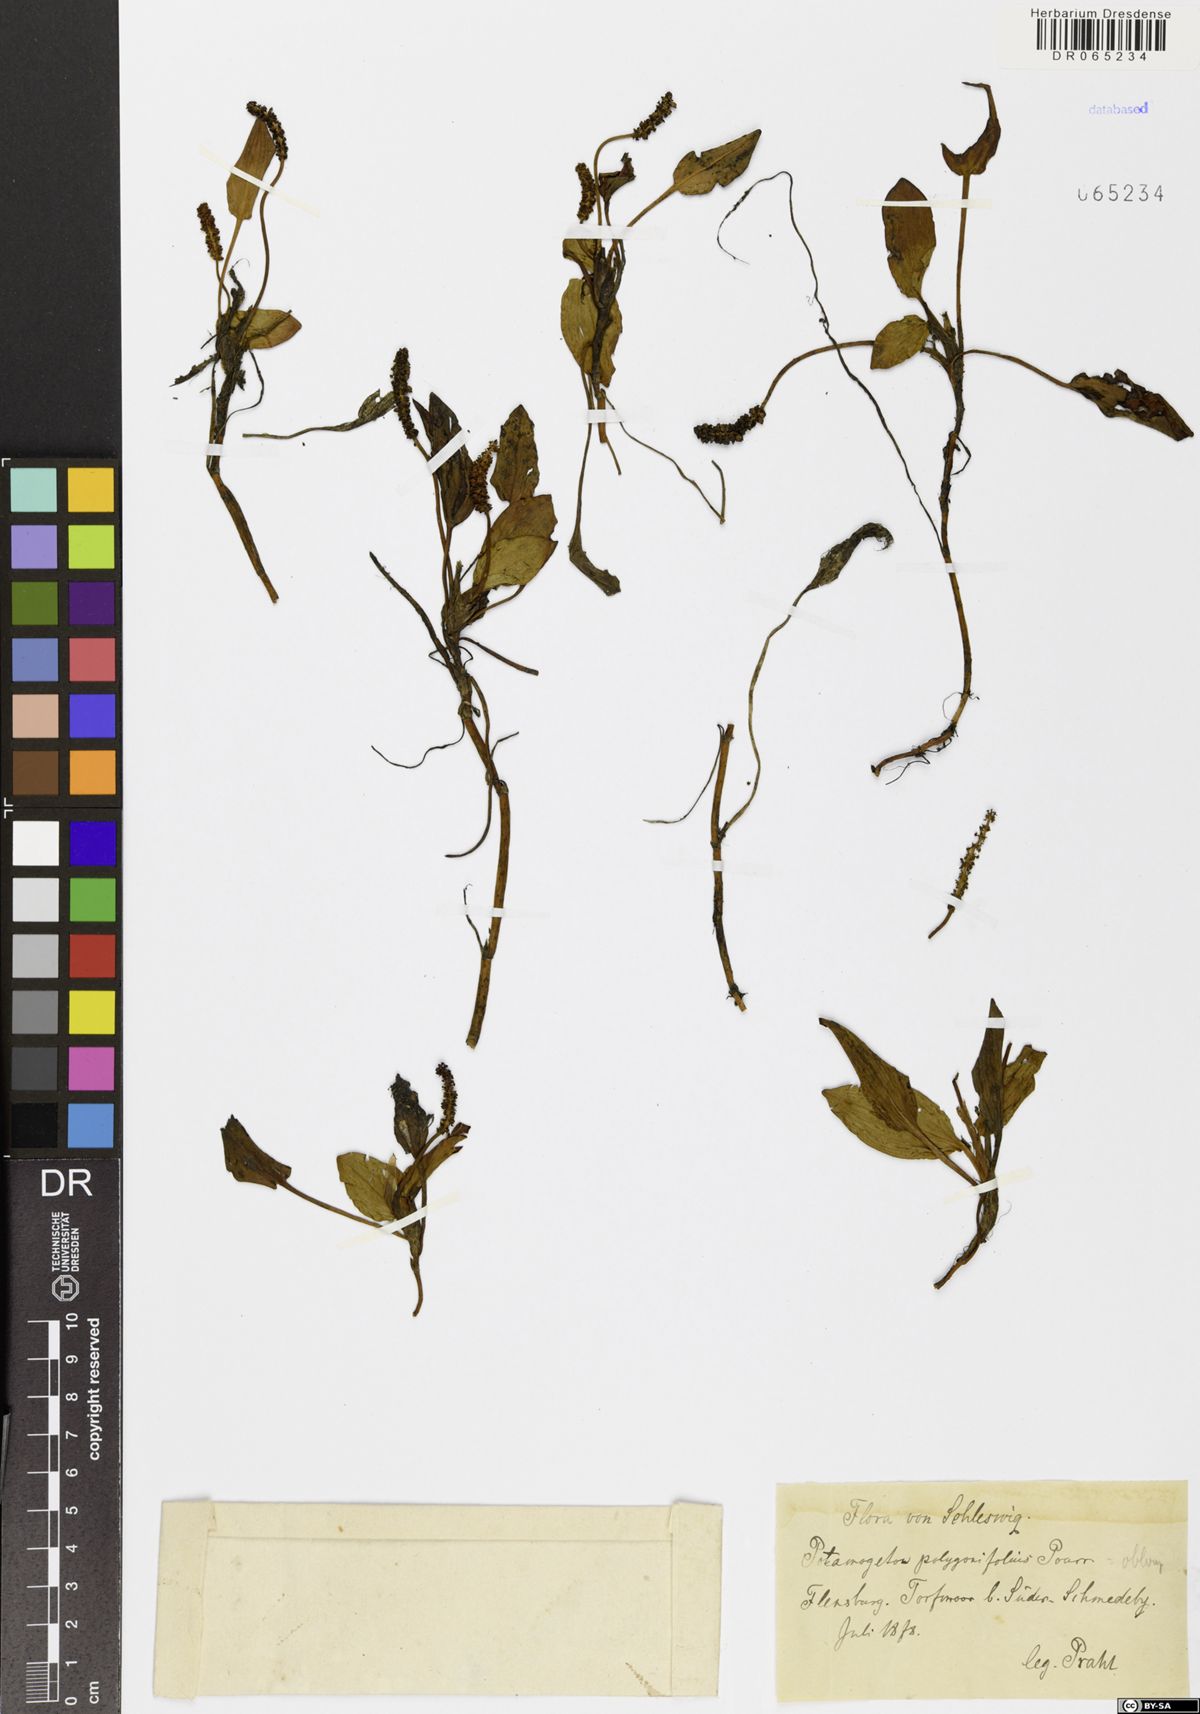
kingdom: Plantae
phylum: Tracheophyta
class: Liliopsida
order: Alismatales
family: Potamogetonaceae
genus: Potamogeton
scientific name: Potamogeton polygonifolius
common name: Bog pondweed
